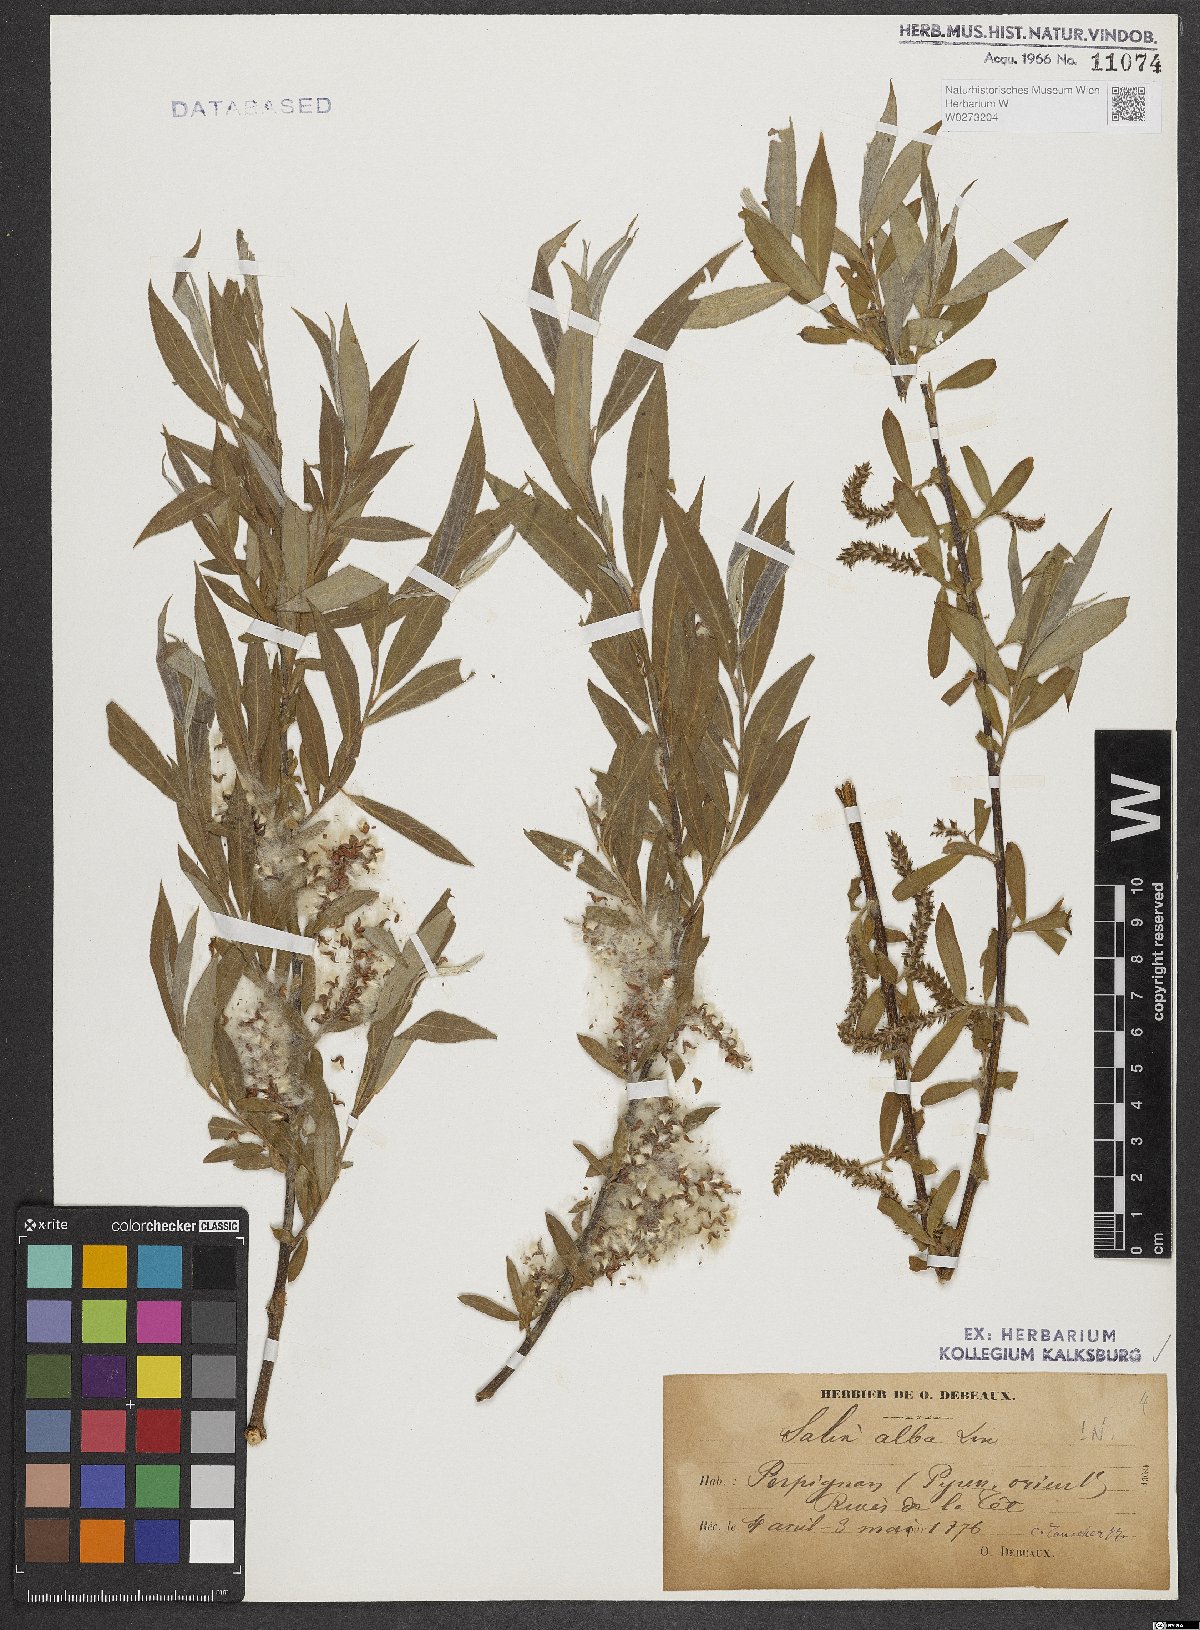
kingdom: Plantae
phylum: Tracheophyta
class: Magnoliopsida
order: Malpighiales
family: Salicaceae
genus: Salix
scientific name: Salix alba
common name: White willow
